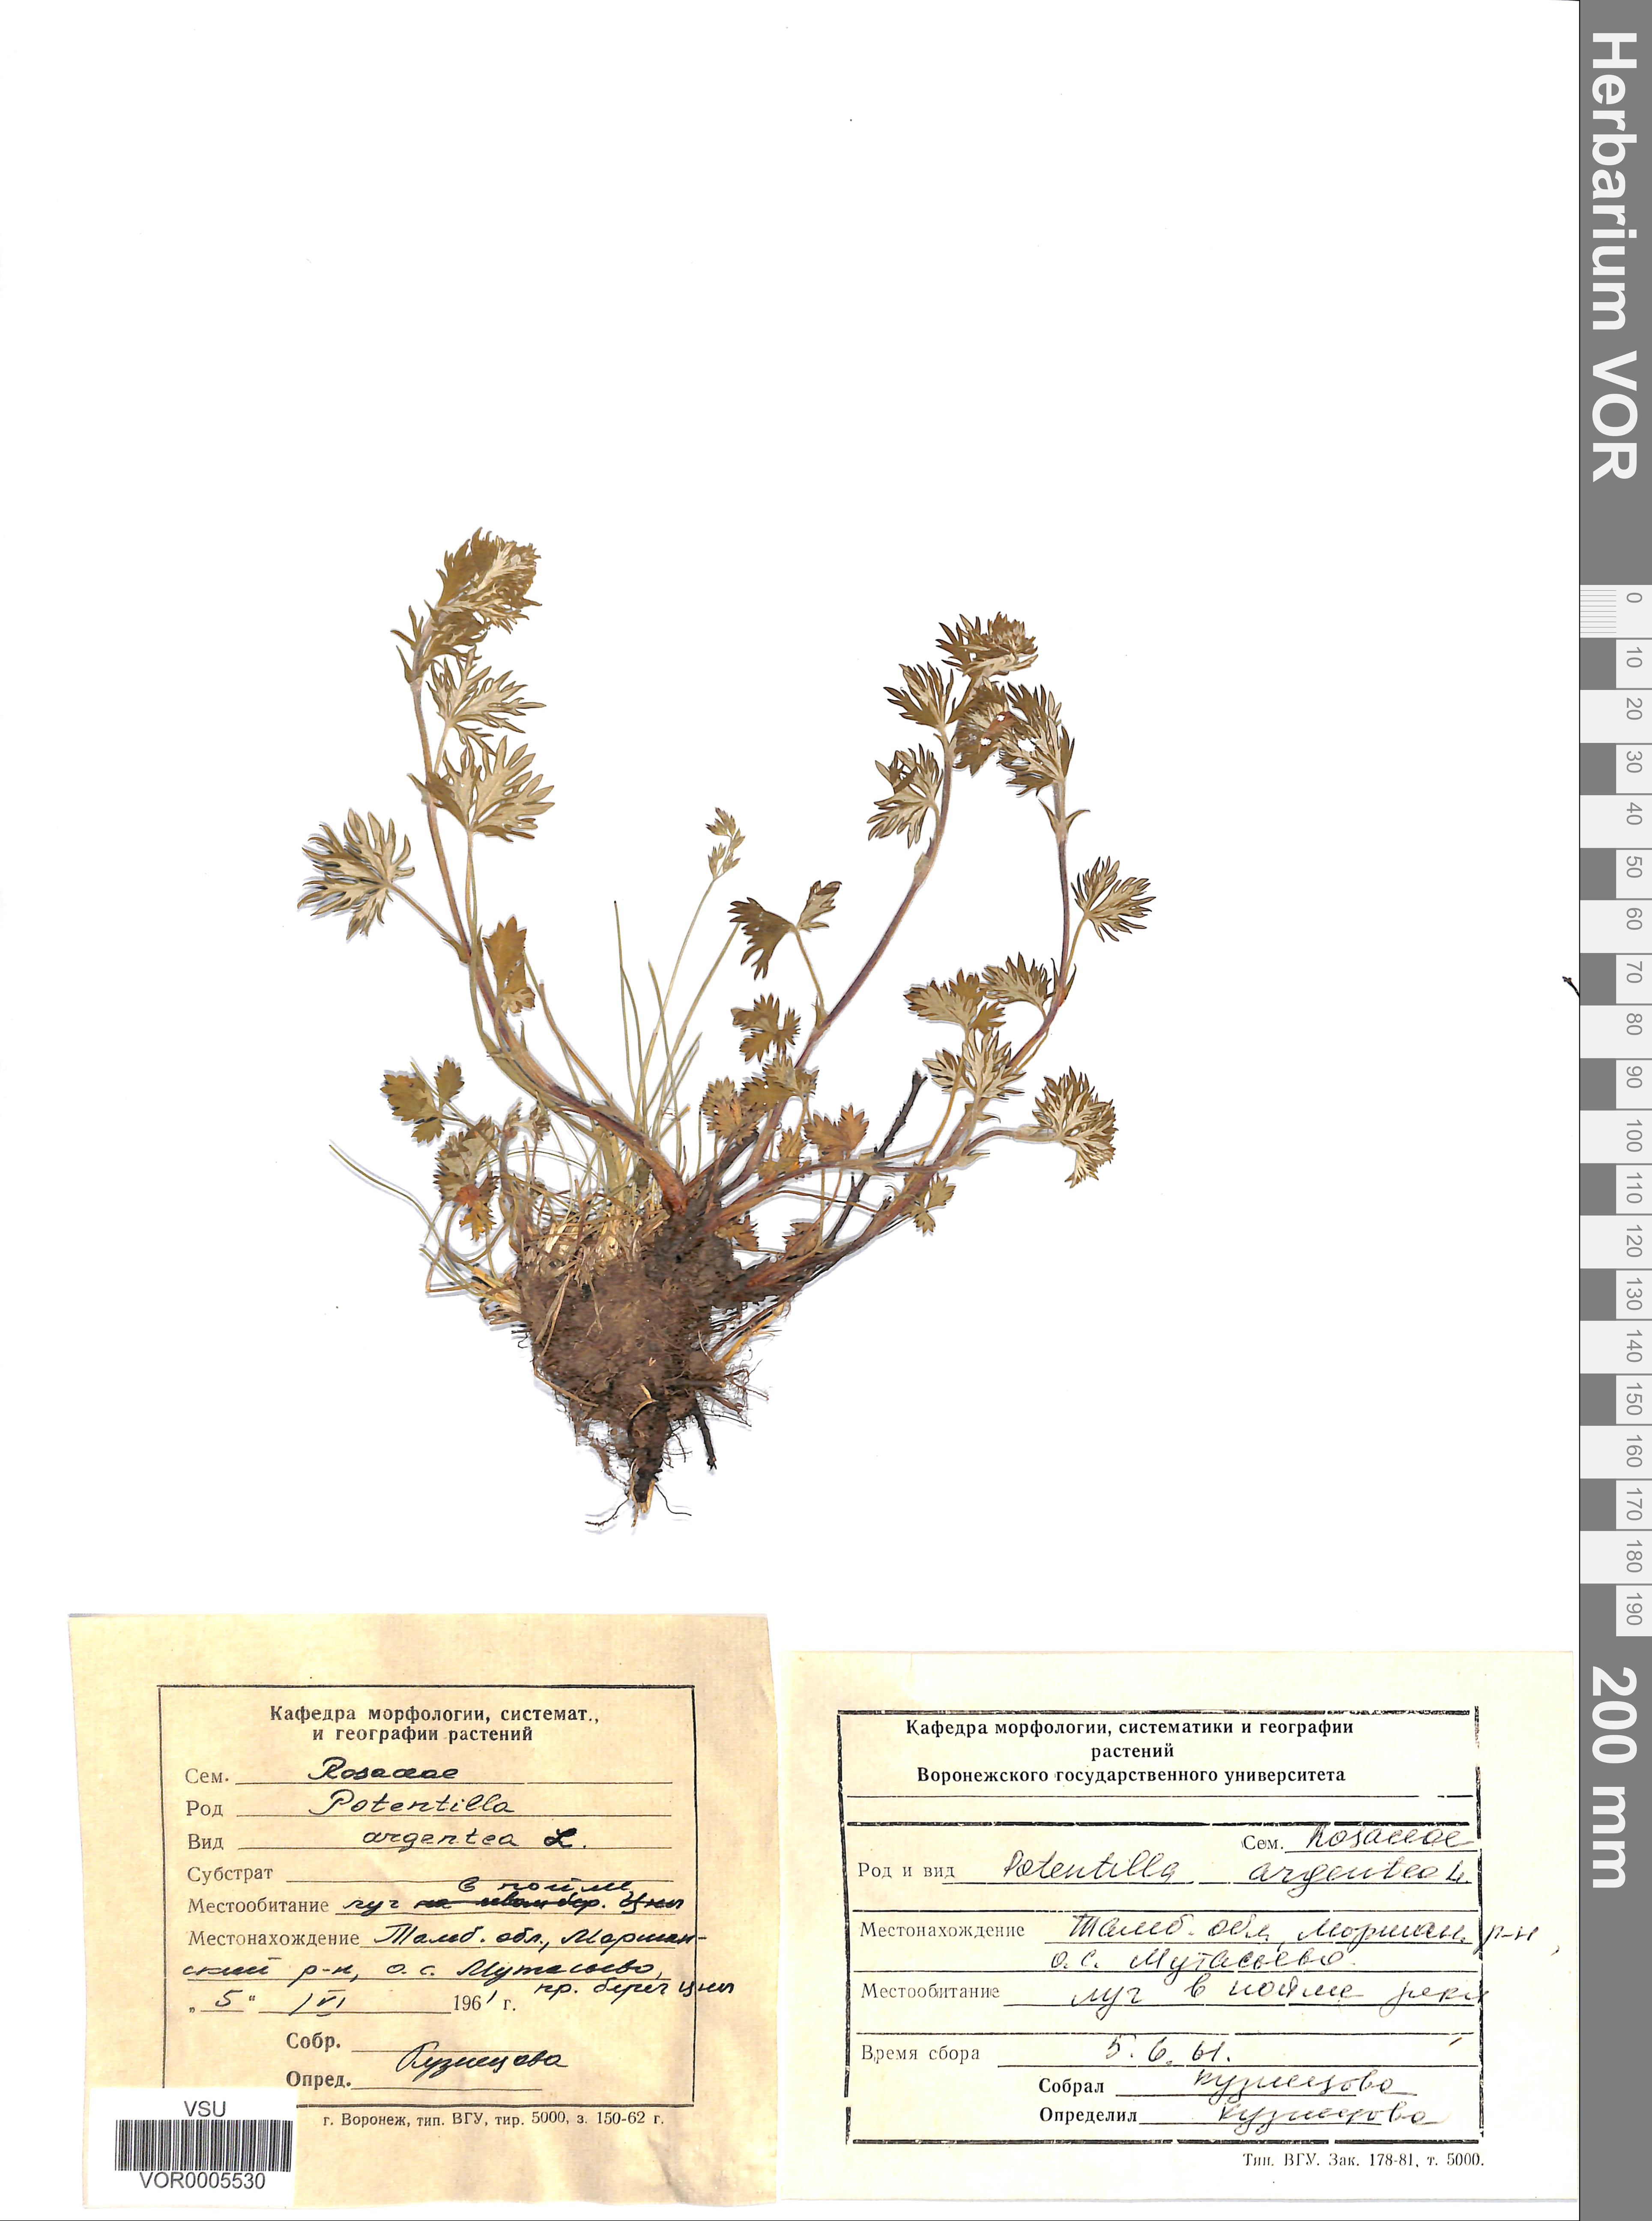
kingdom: Plantae
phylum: Tracheophyta
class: Magnoliopsida
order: Rosales
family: Rosaceae
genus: Potentilla
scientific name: Potentilla argentea
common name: Hoary cinquefoil
